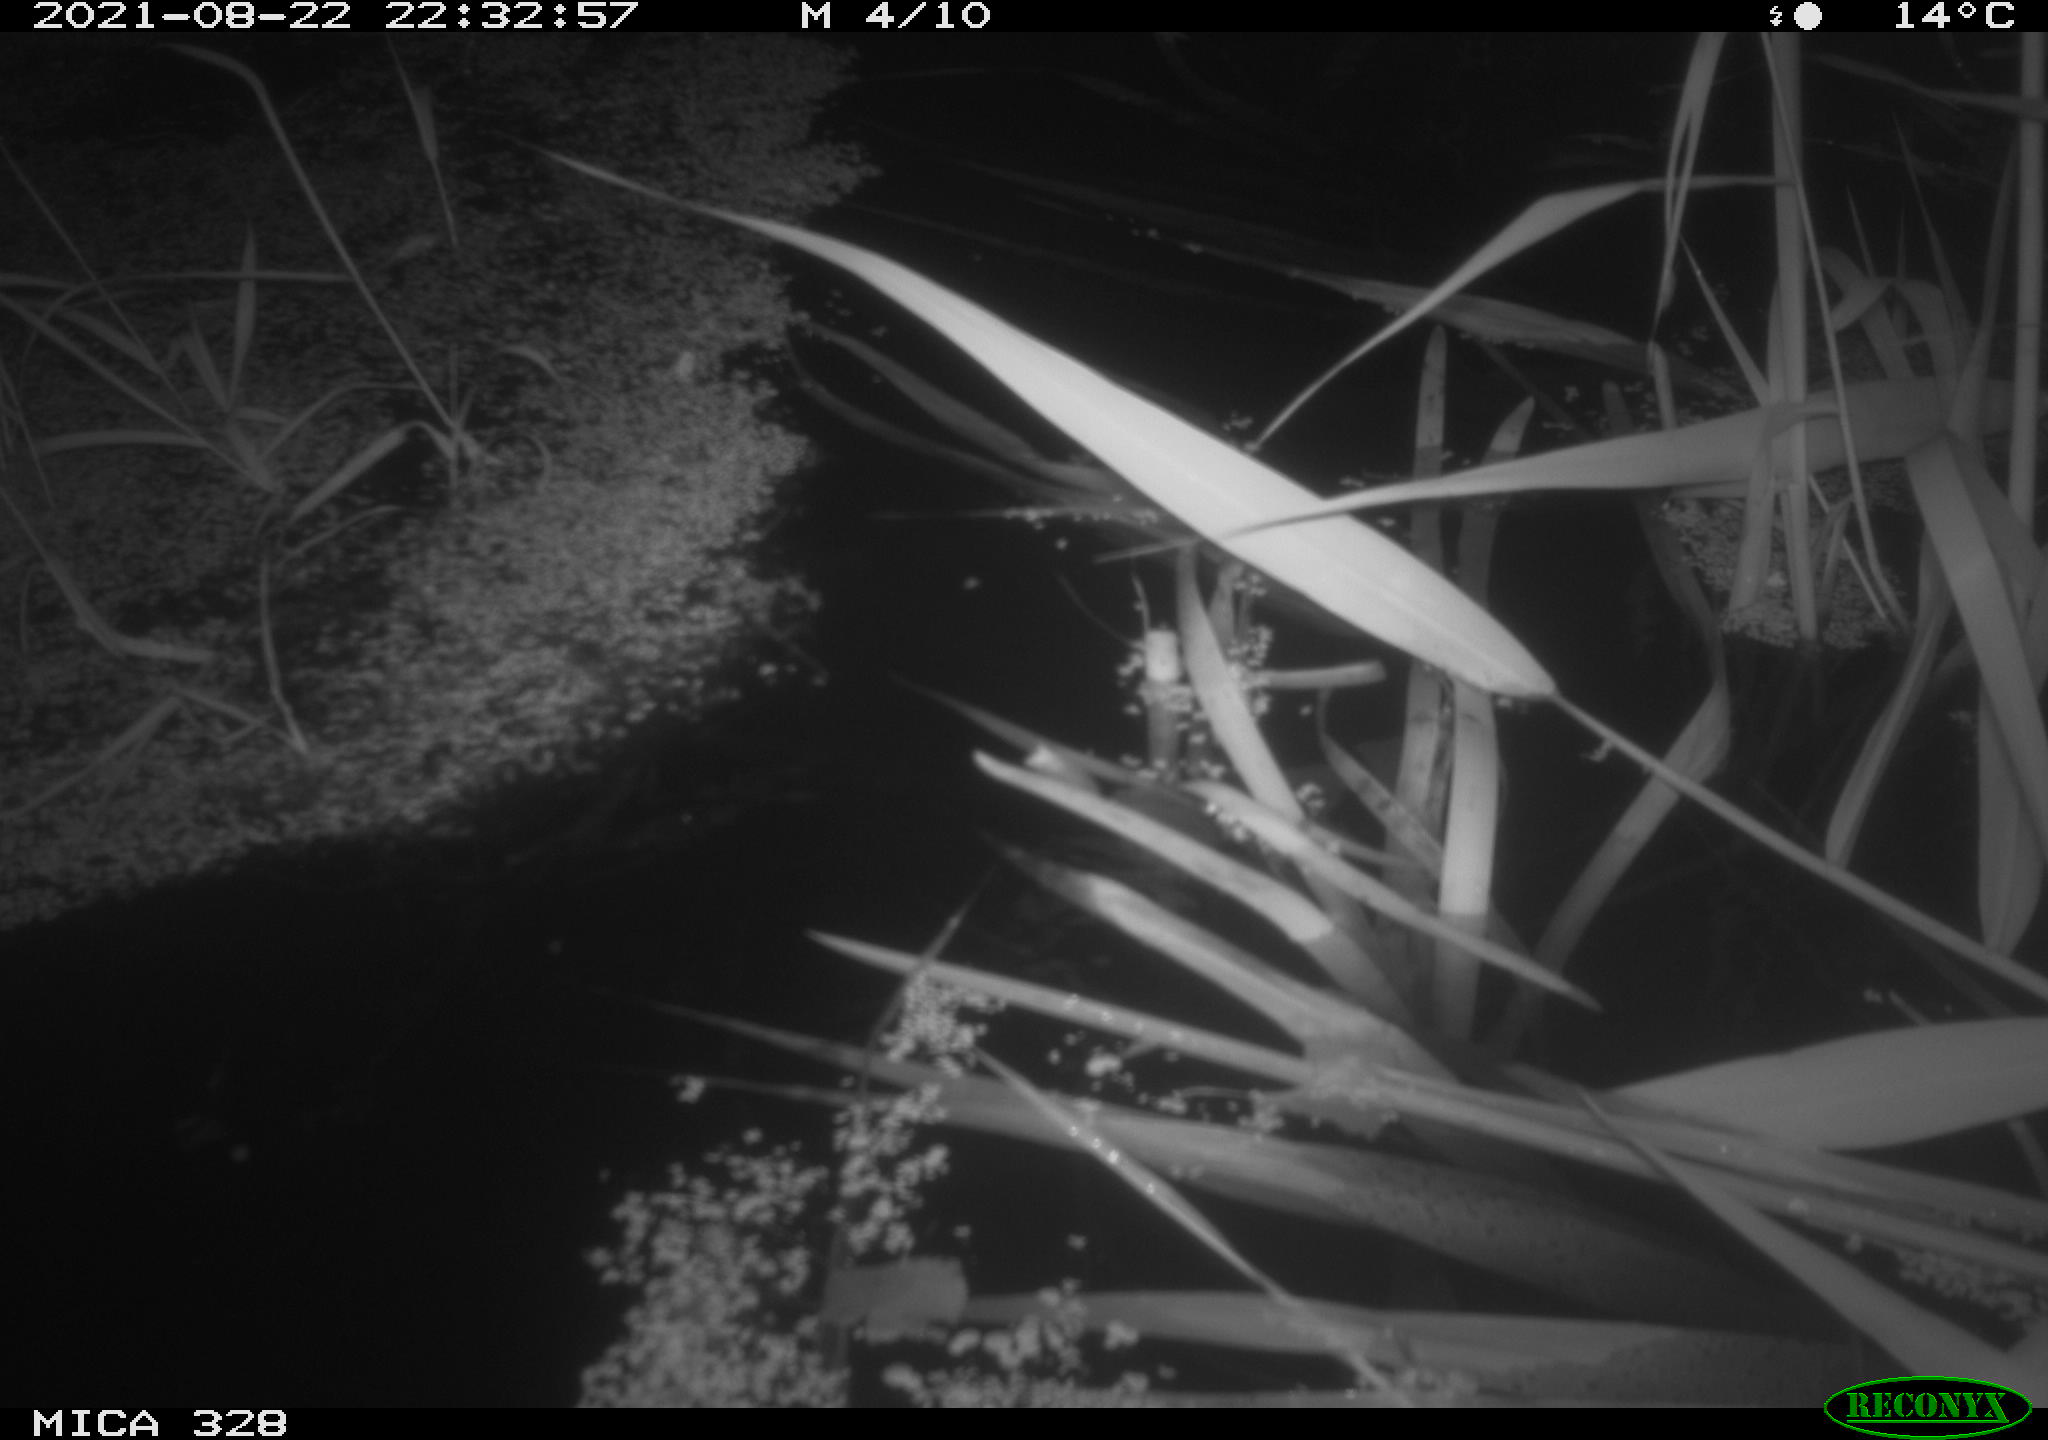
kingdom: Animalia
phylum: Chordata
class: Mammalia
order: Rodentia
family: Cricetidae
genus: Ondatra
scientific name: Ondatra zibethicus
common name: Muskrat
